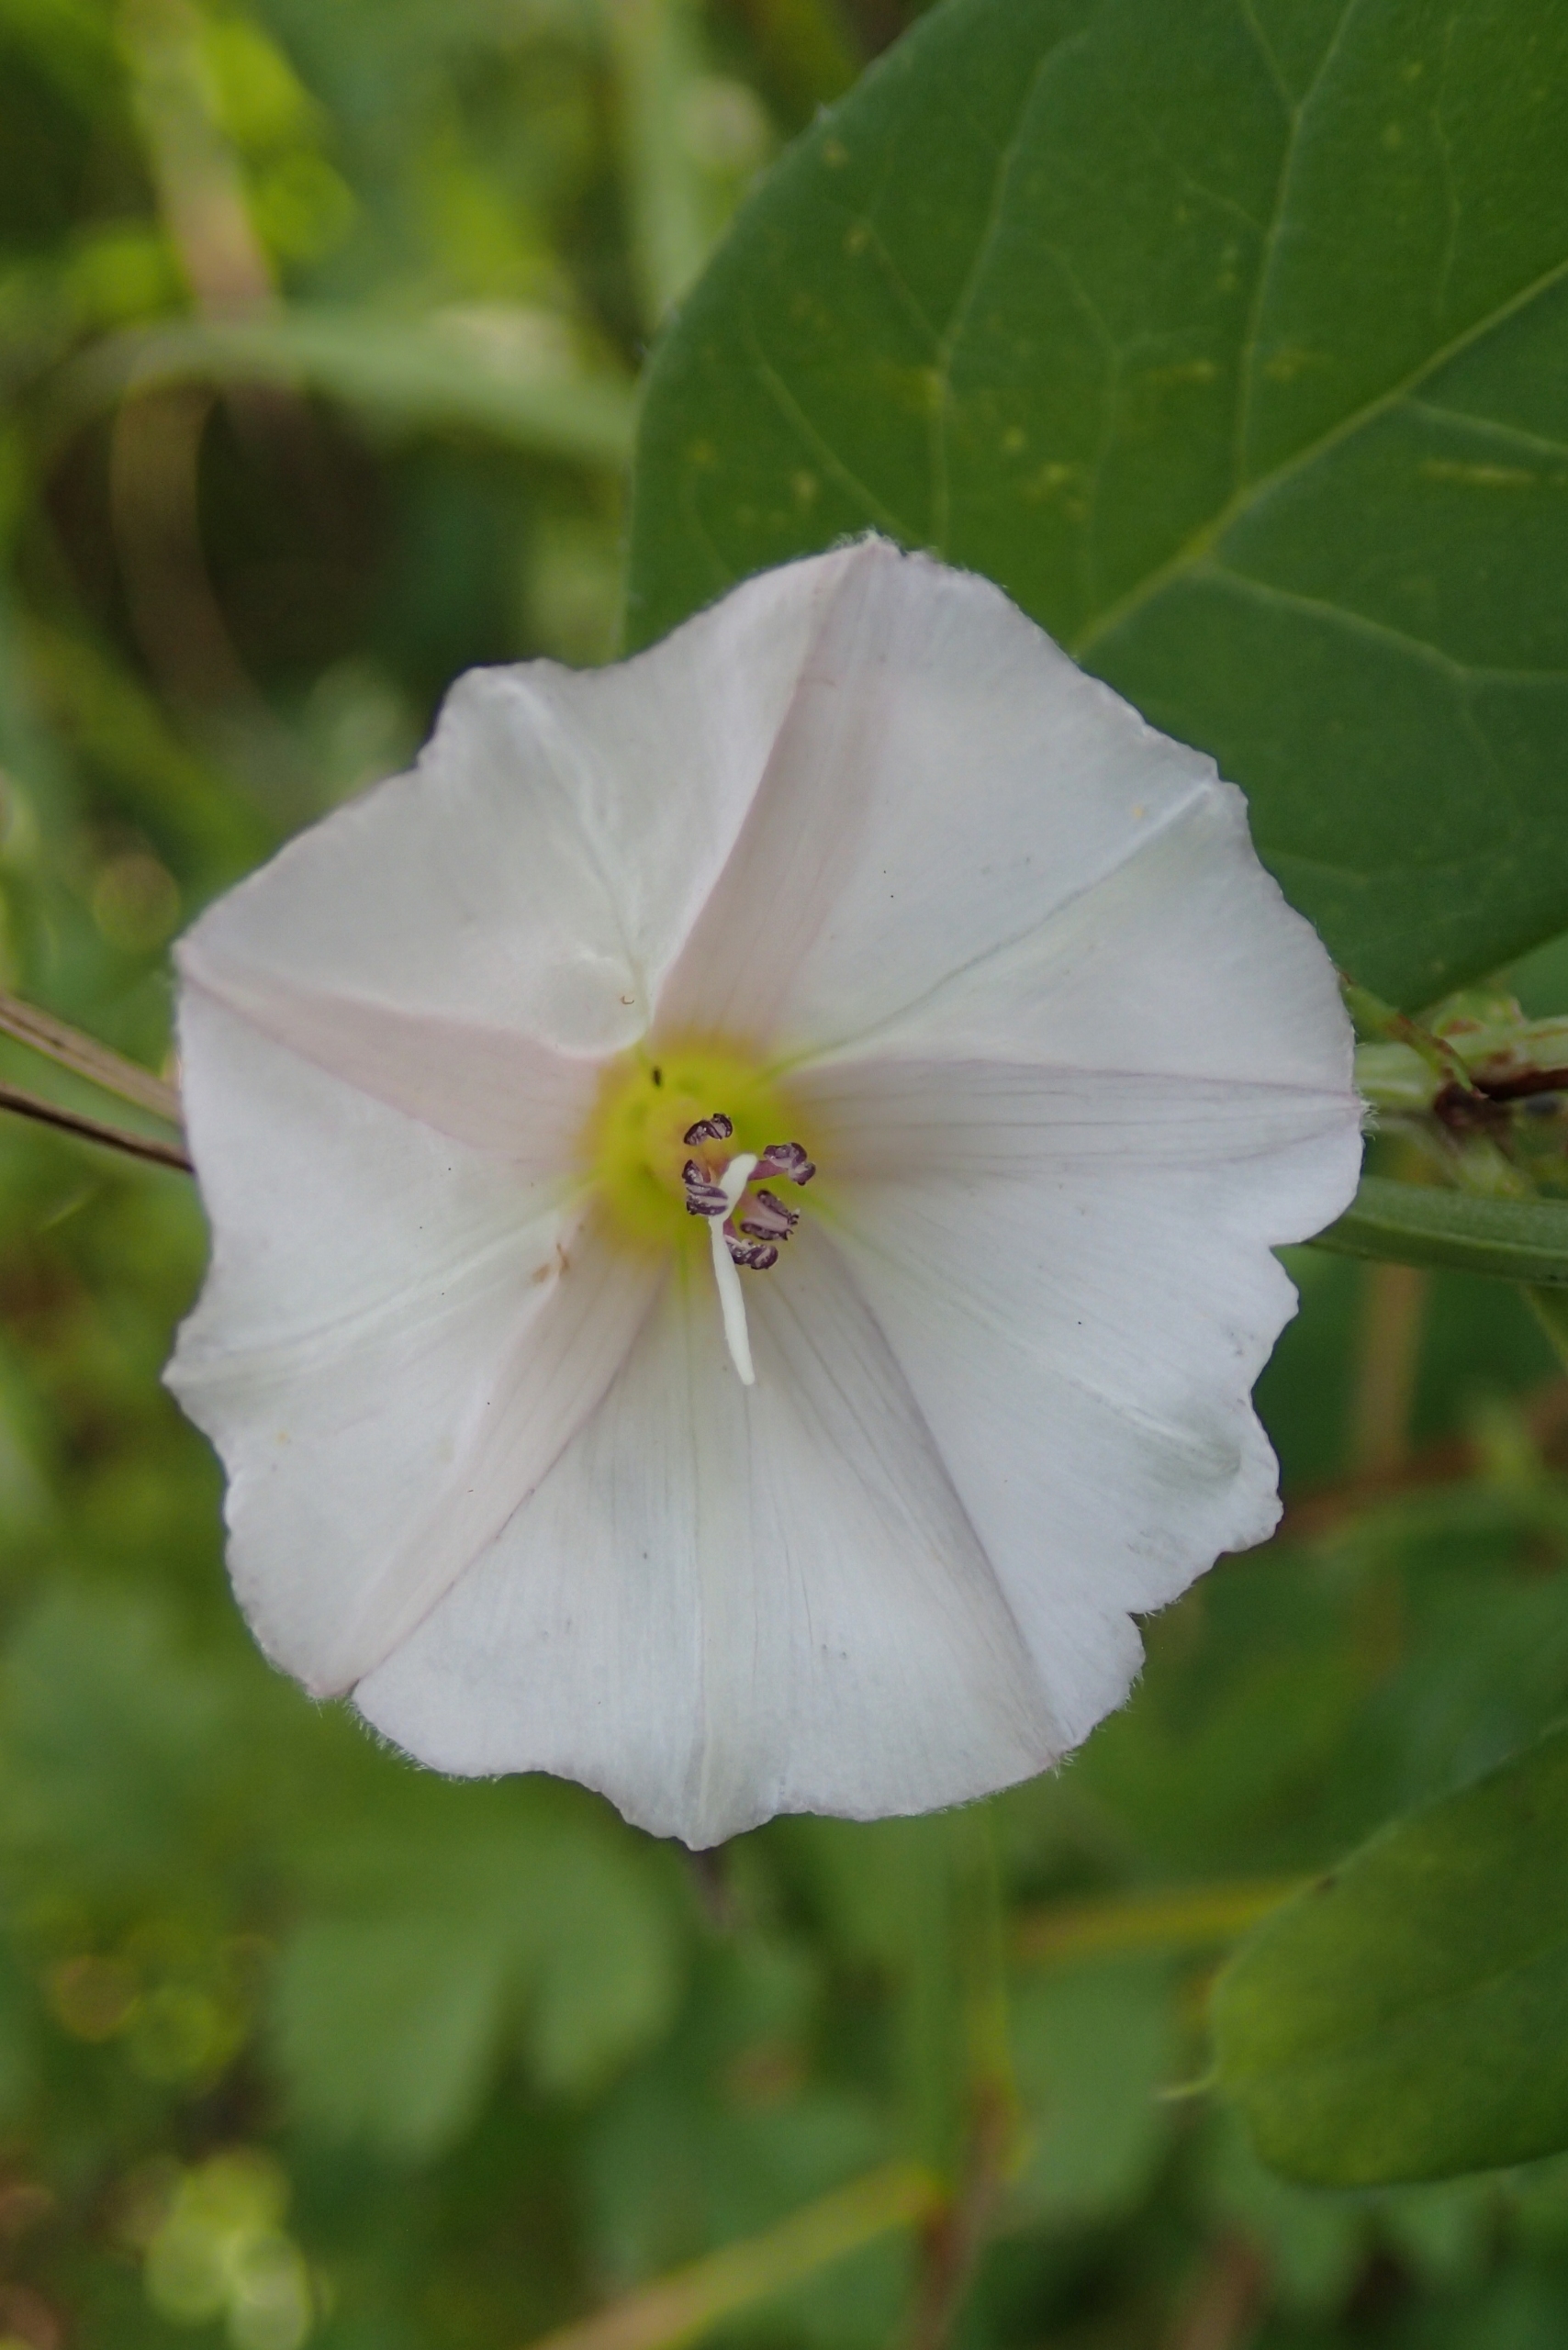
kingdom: Plantae
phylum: Tracheophyta
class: Magnoliopsida
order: Solanales
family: Convolvulaceae
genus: Convolvulus
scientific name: Convolvulus arvensis
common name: Ager-snerle
